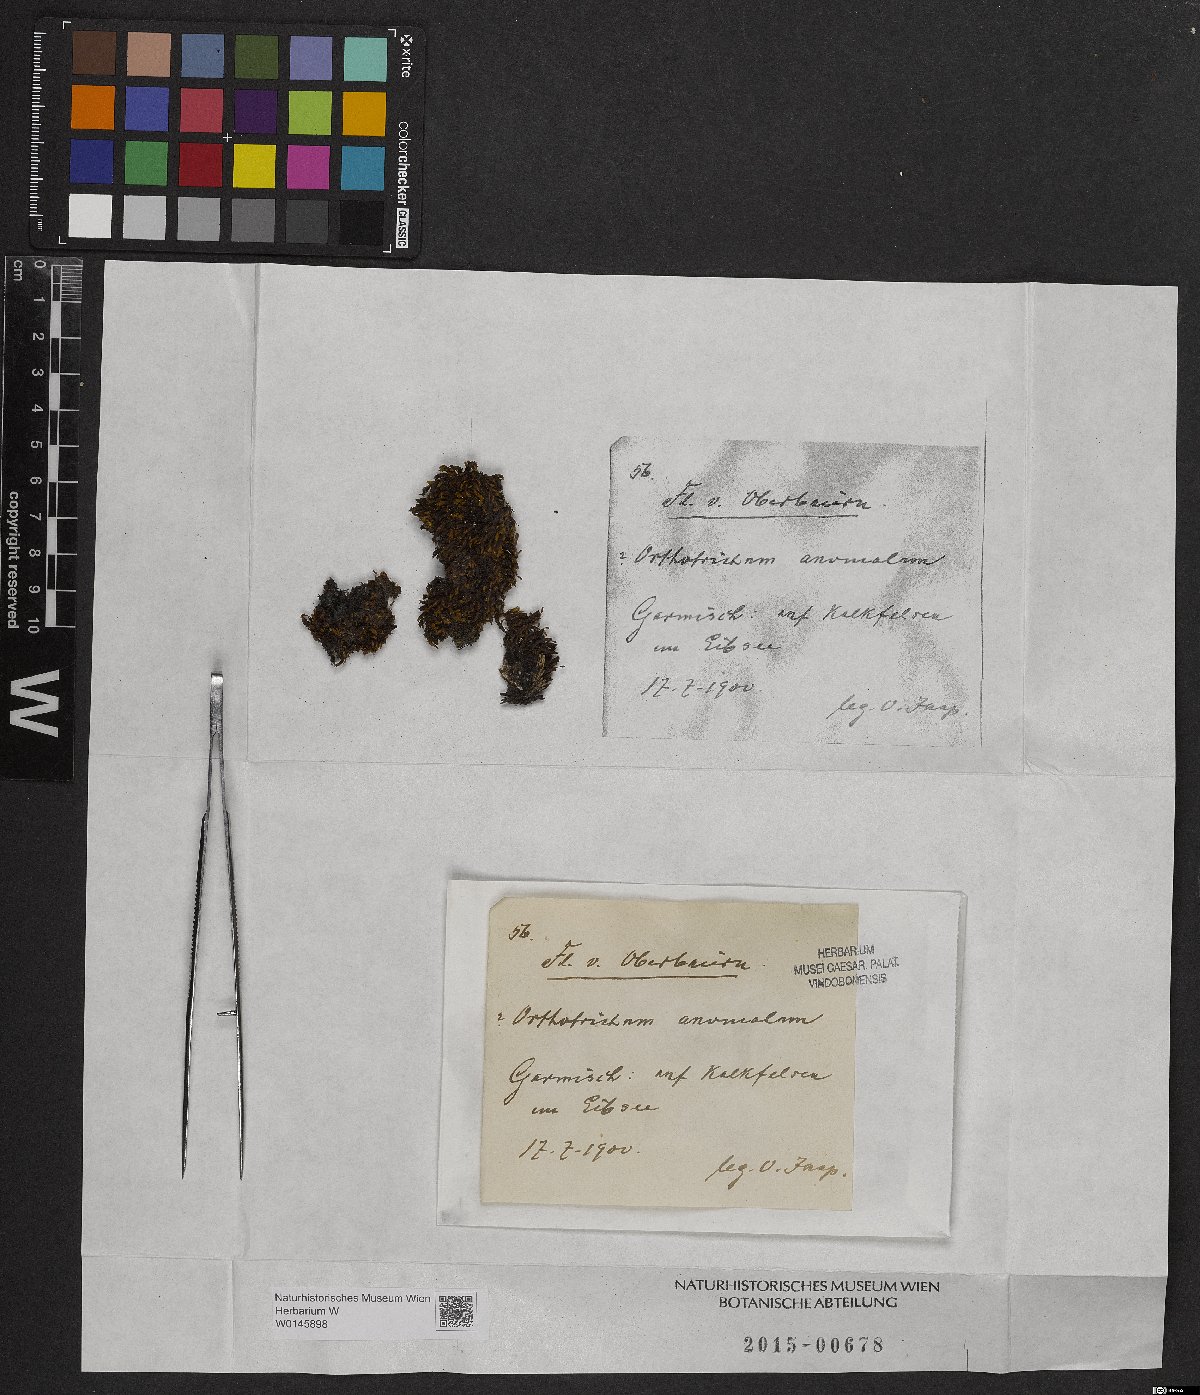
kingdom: Plantae
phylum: Bryophyta
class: Bryopsida
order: Orthotrichales
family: Orthotrichaceae
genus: Orthotrichum
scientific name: Orthotrichum anomalum
